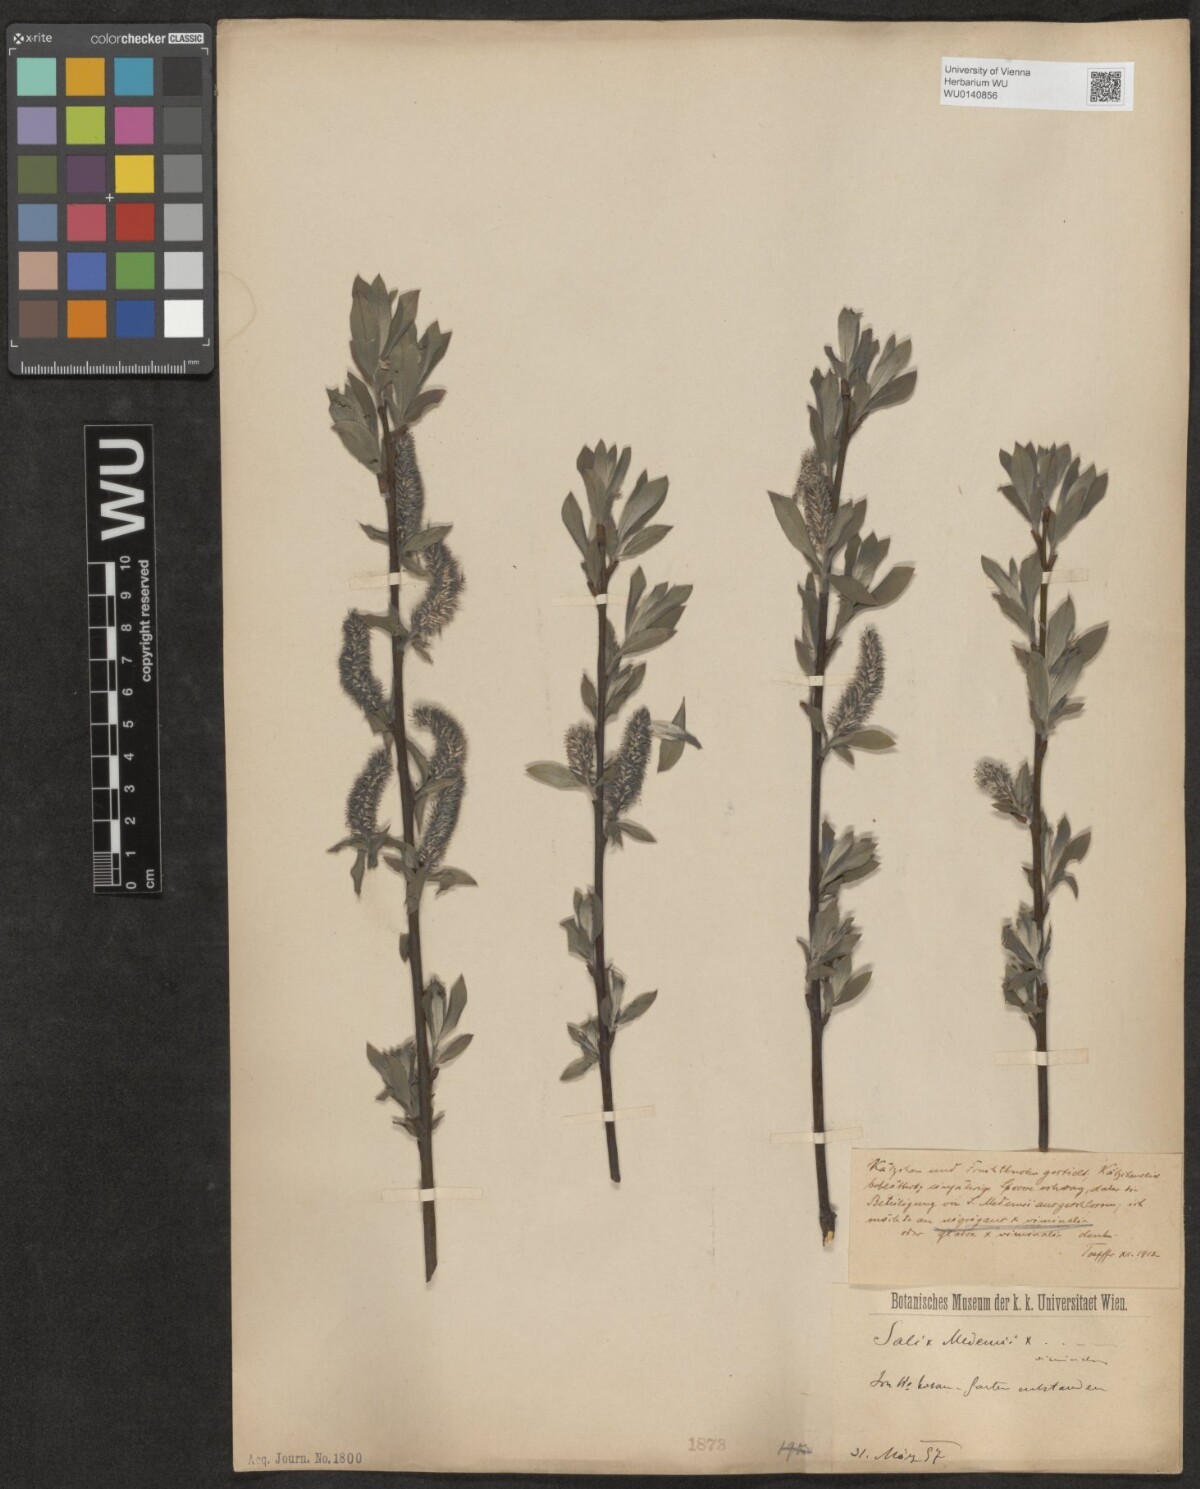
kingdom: Plantae
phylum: Tracheophyta
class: Magnoliopsida
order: Malpighiales
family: Salicaceae
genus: Salix
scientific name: Salix
